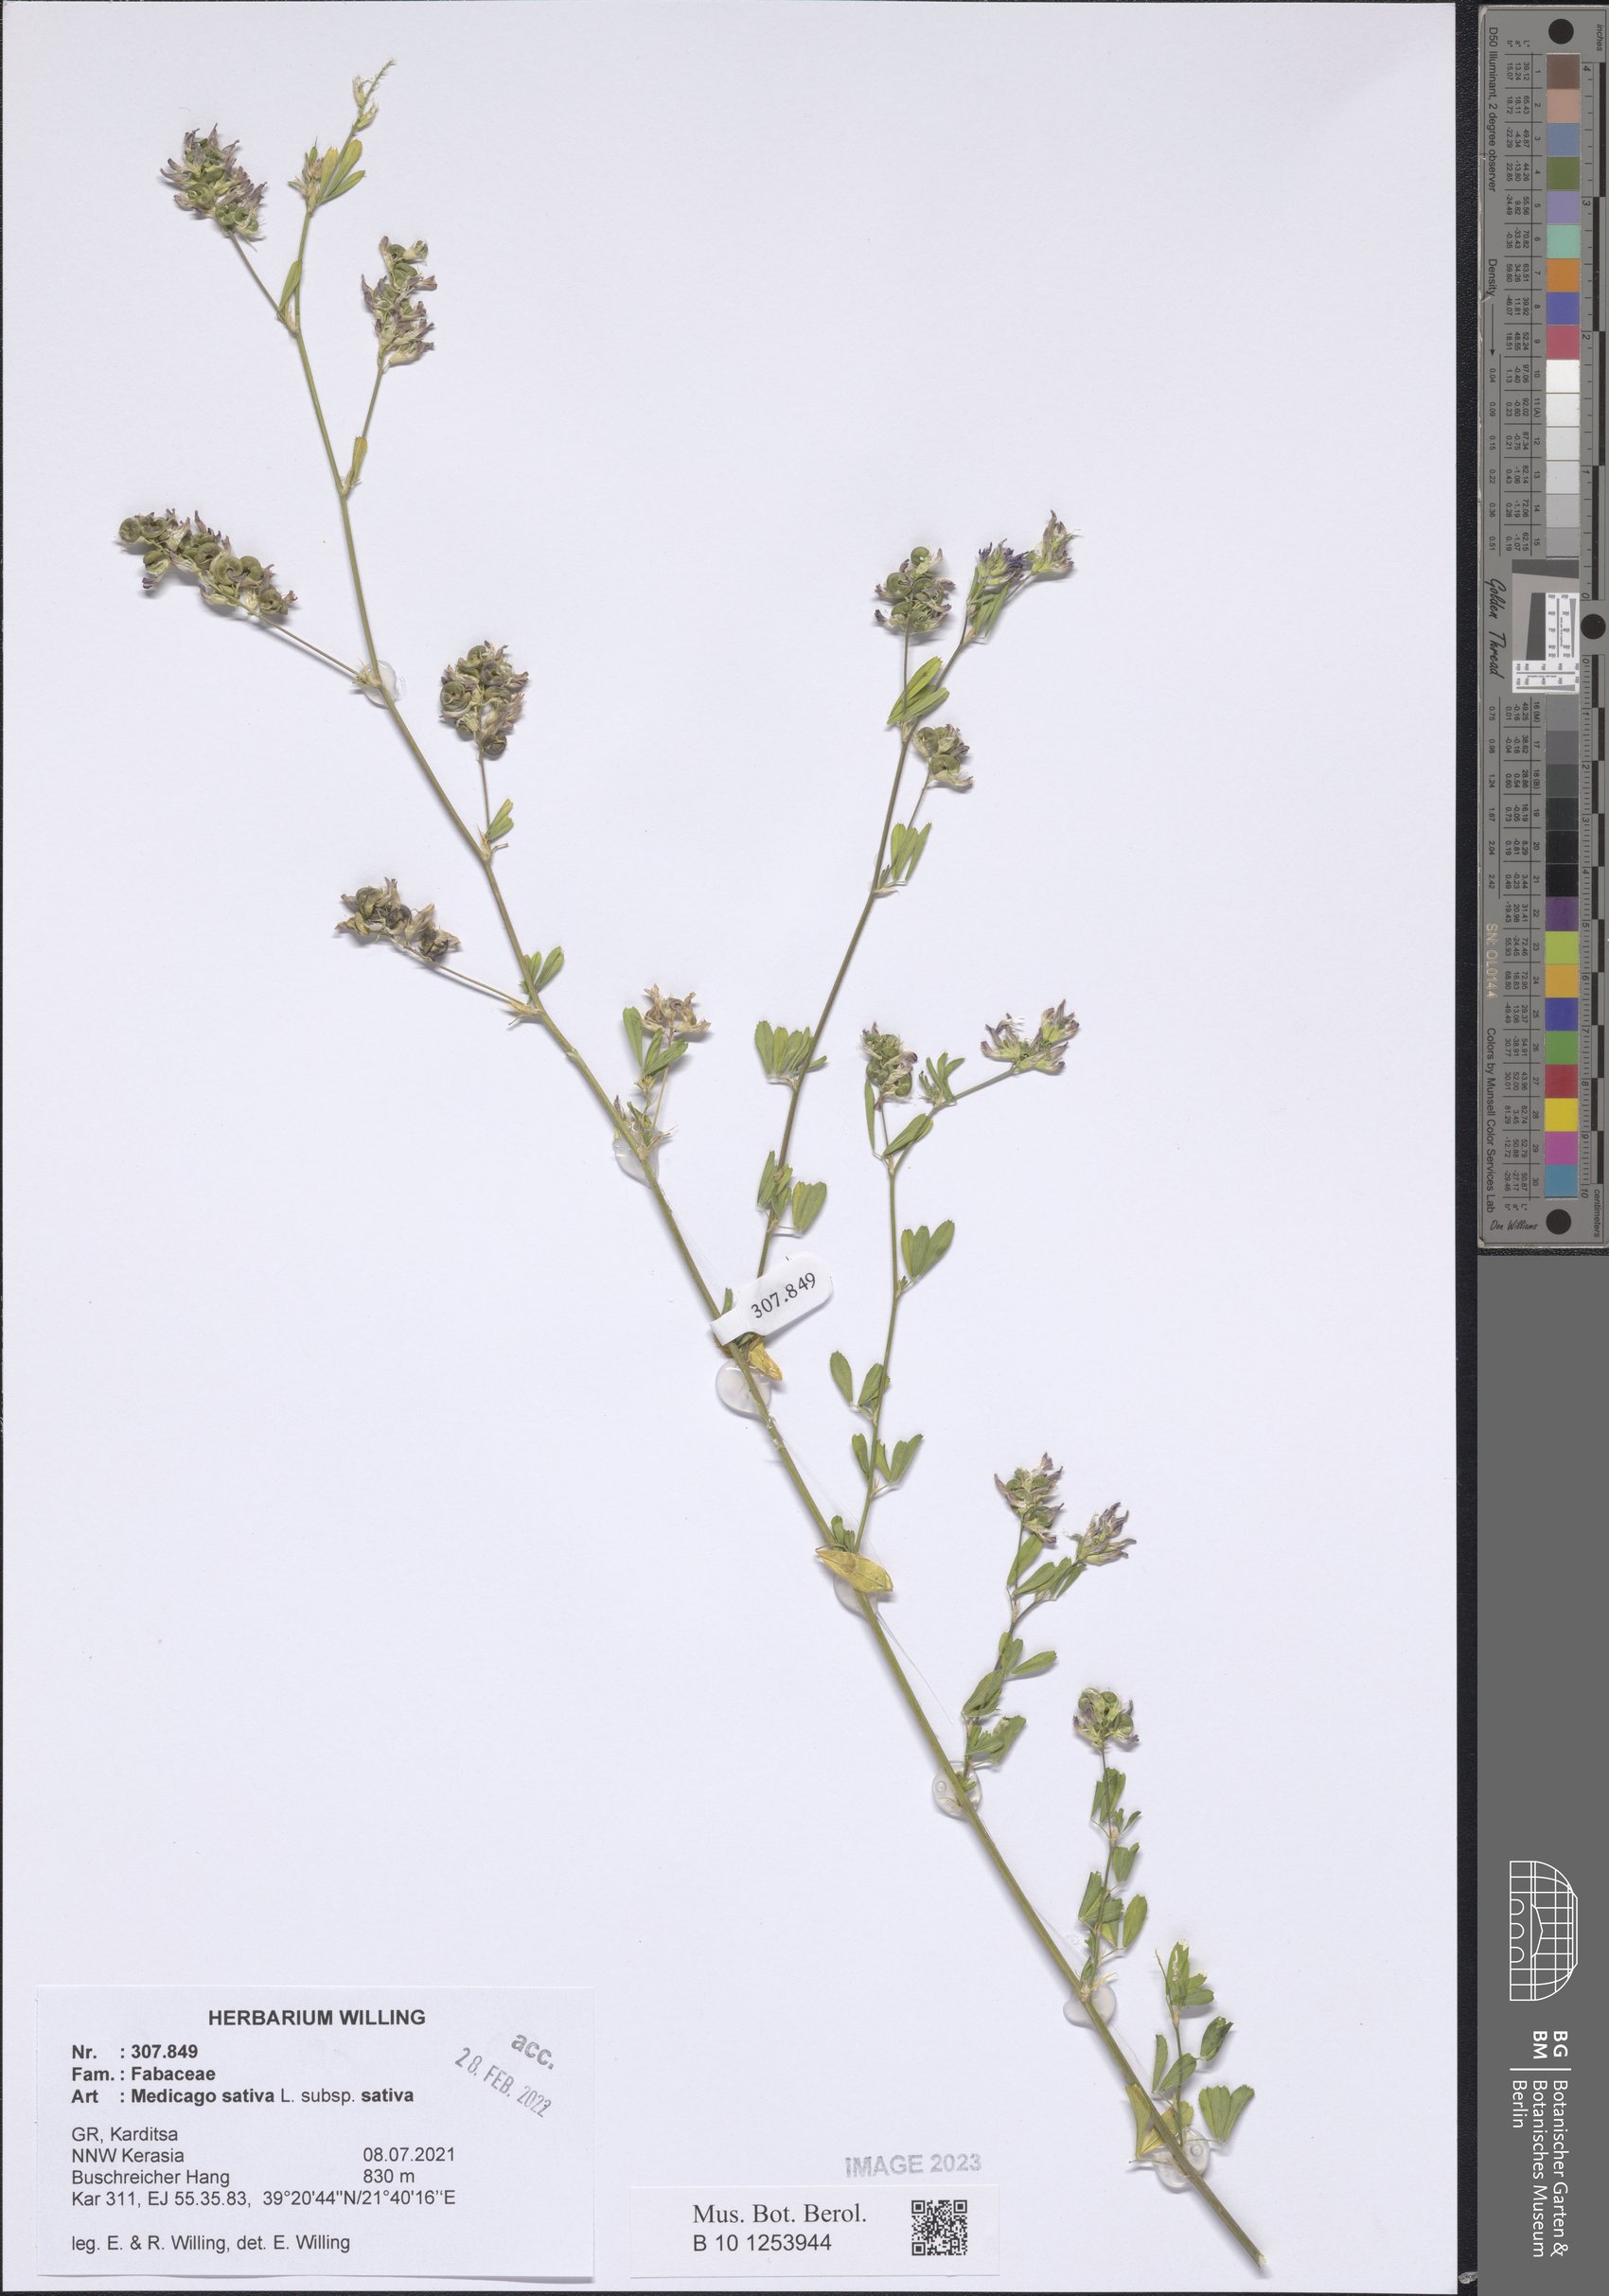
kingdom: Plantae
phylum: Tracheophyta
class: Magnoliopsida
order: Fabales
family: Fabaceae
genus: Medicago
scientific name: Medicago sativa
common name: Alfalfa
